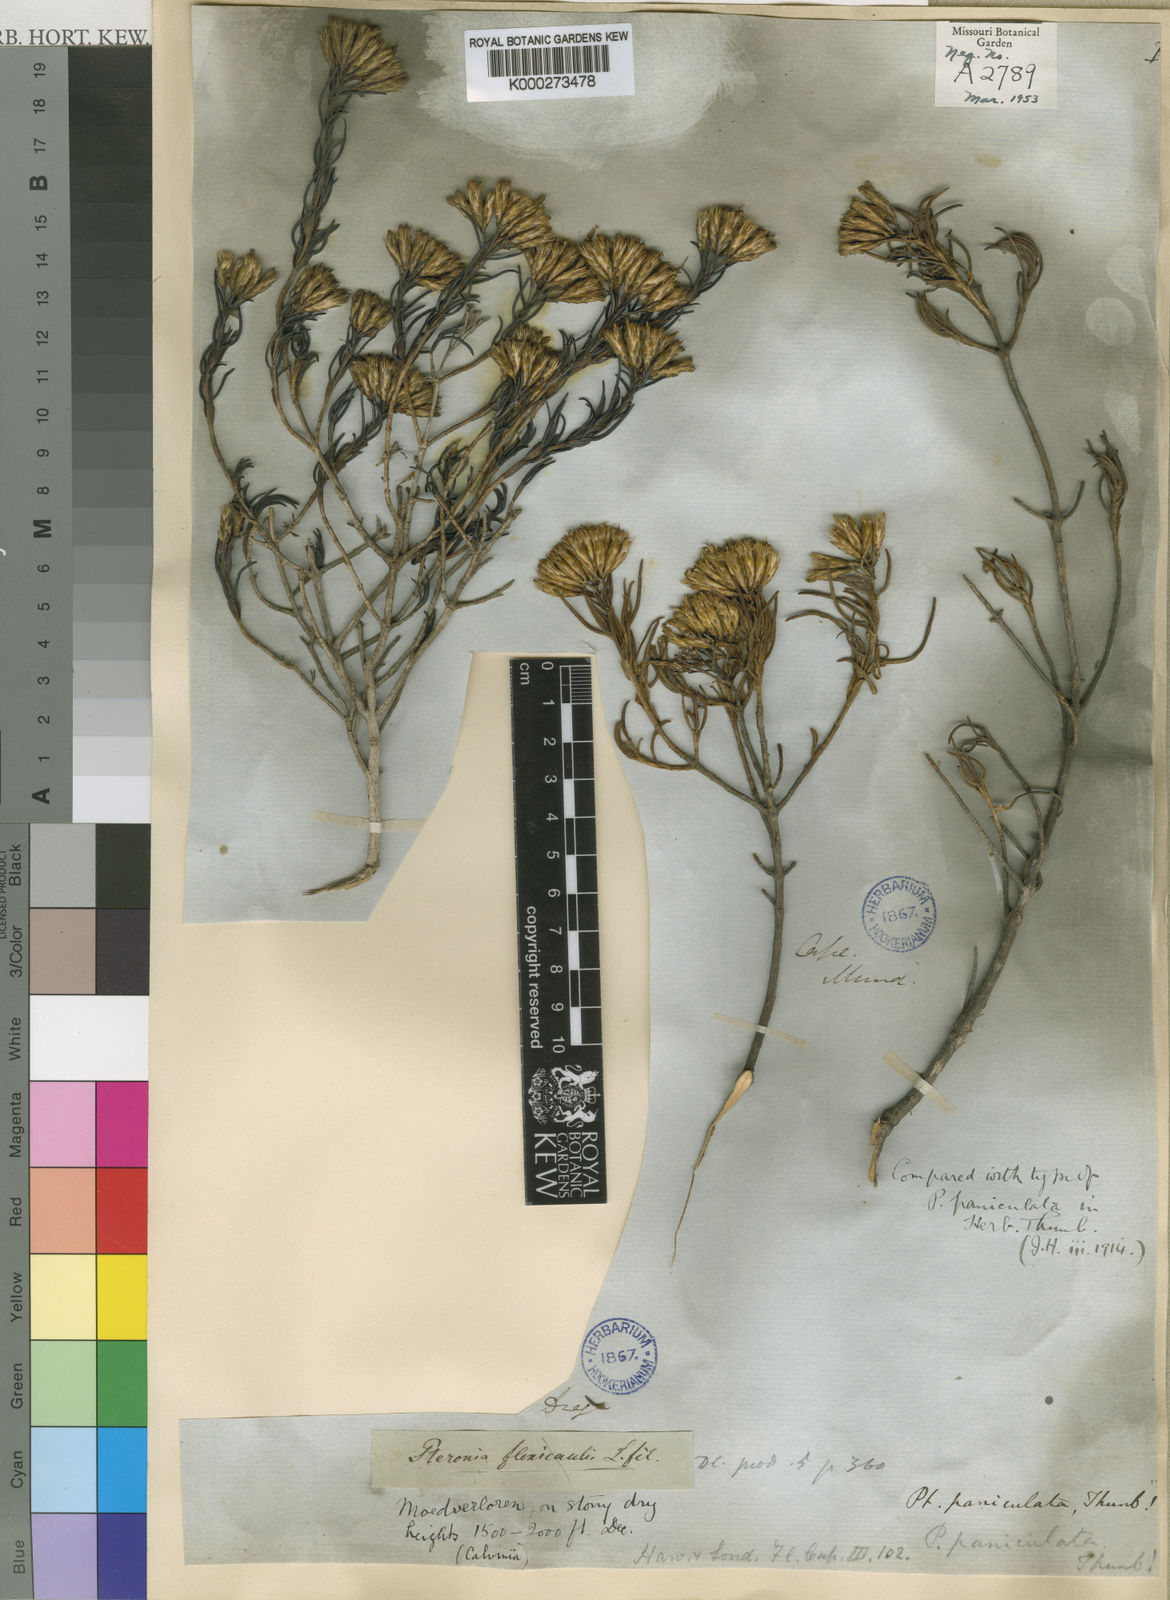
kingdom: Plantae
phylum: Tracheophyta
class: Magnoliopsida
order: Asterales
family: Asteraceae
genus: Pteronia
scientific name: Pteronia paniculata
